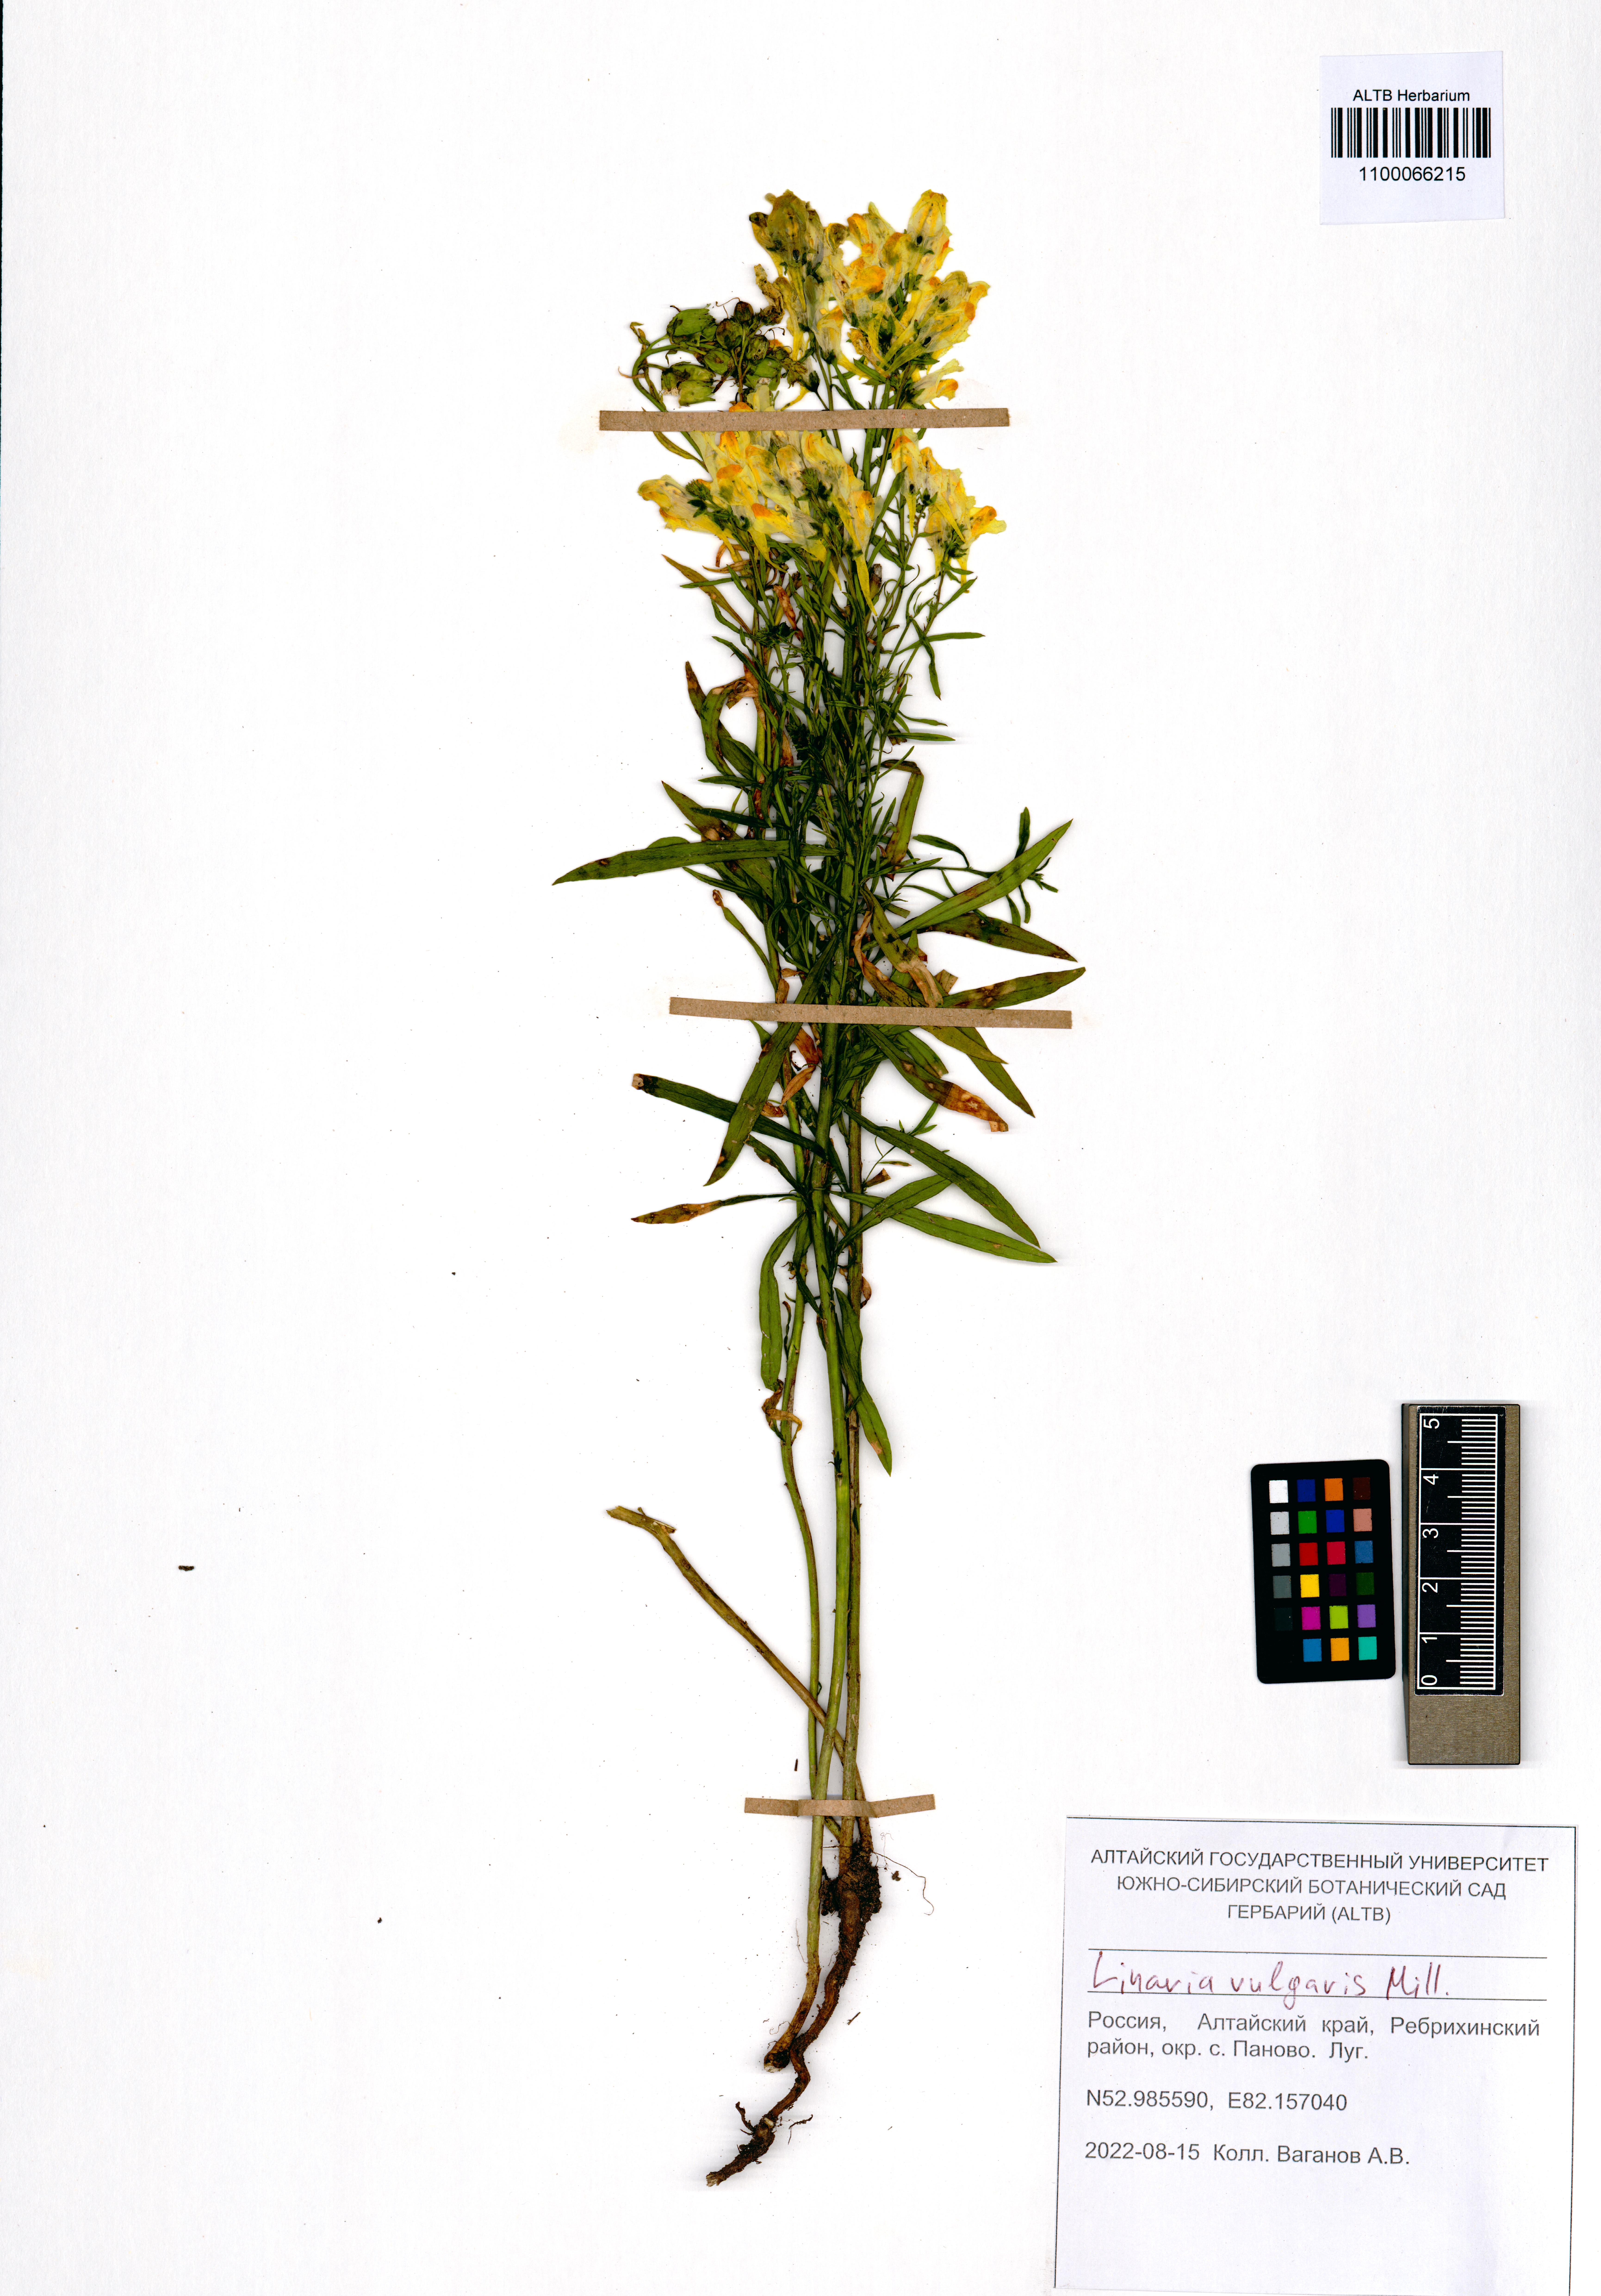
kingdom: Plantae
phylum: Tracheophyta
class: Magnoliopsida
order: Lamiales
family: Plantaginaceae
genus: Linaria
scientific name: Linaria vulgaris
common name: Butter and eggs
